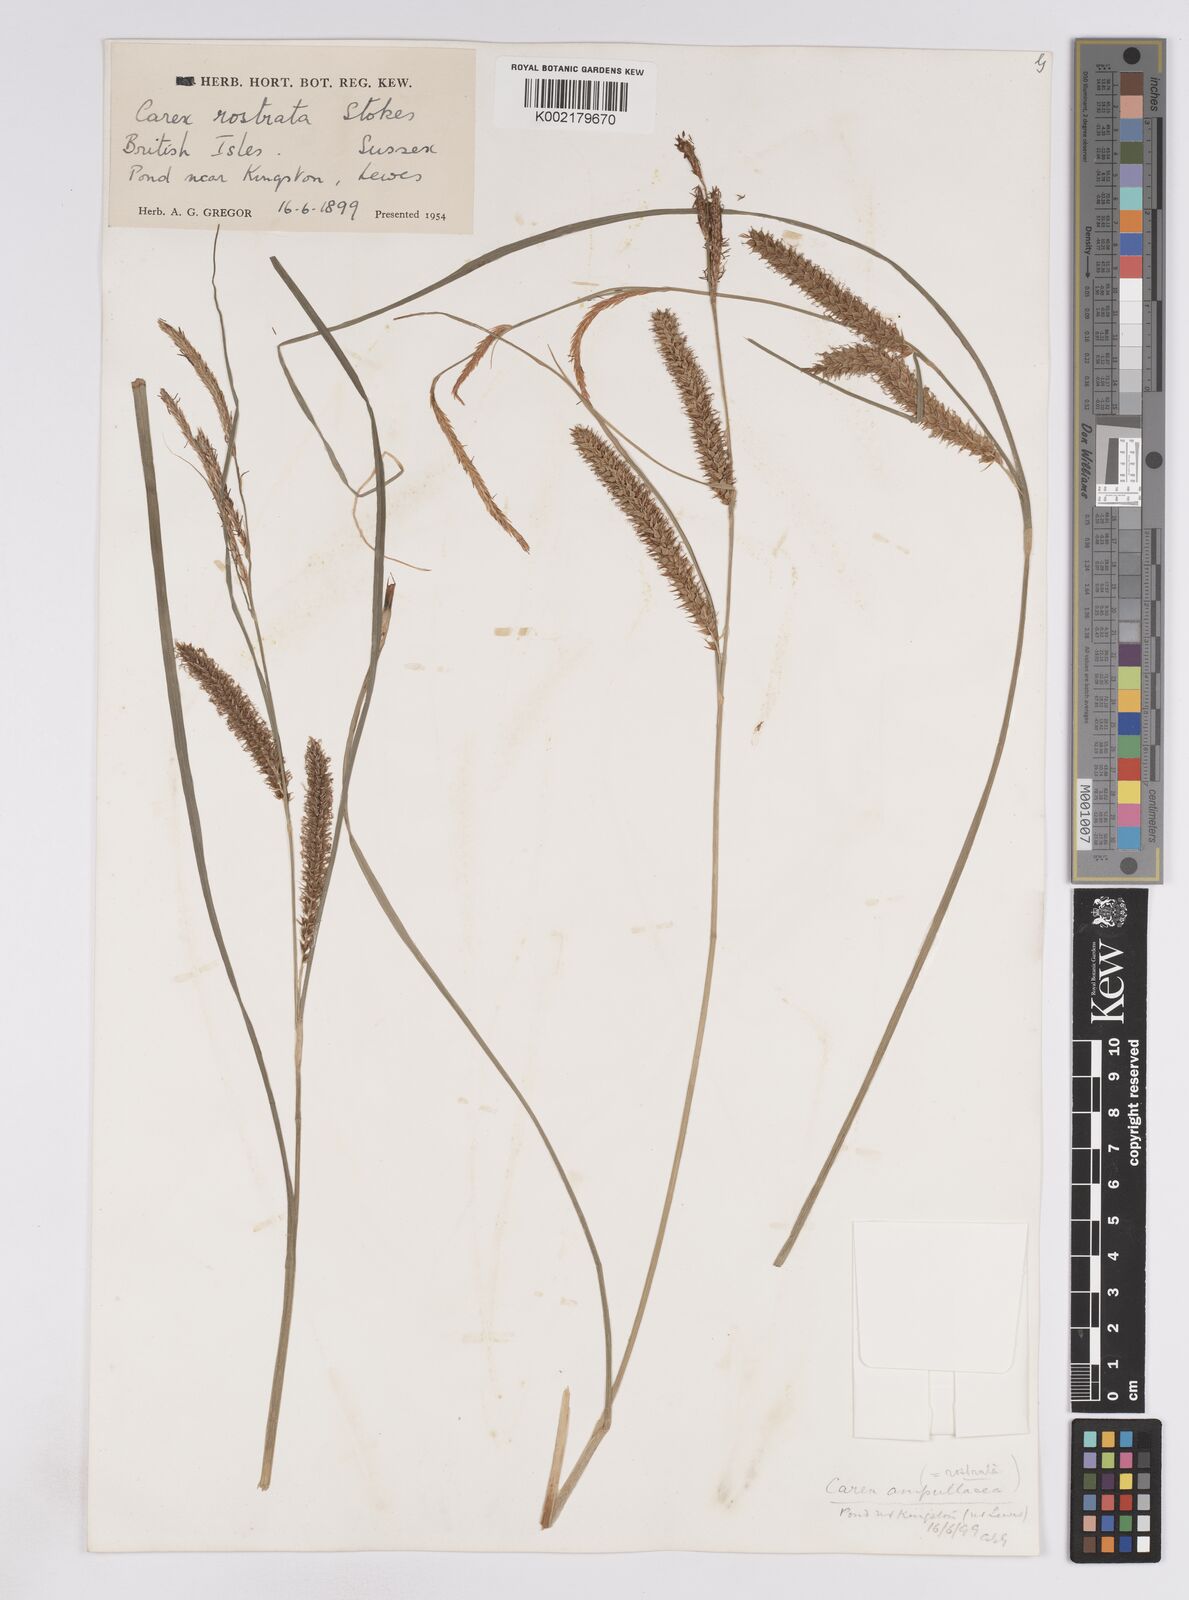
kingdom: Plantae
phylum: Tracheophyta
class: Liliopsida
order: Poales
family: Cyperaceae
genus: Carex
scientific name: Carex rostrata
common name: Bottle sedge
